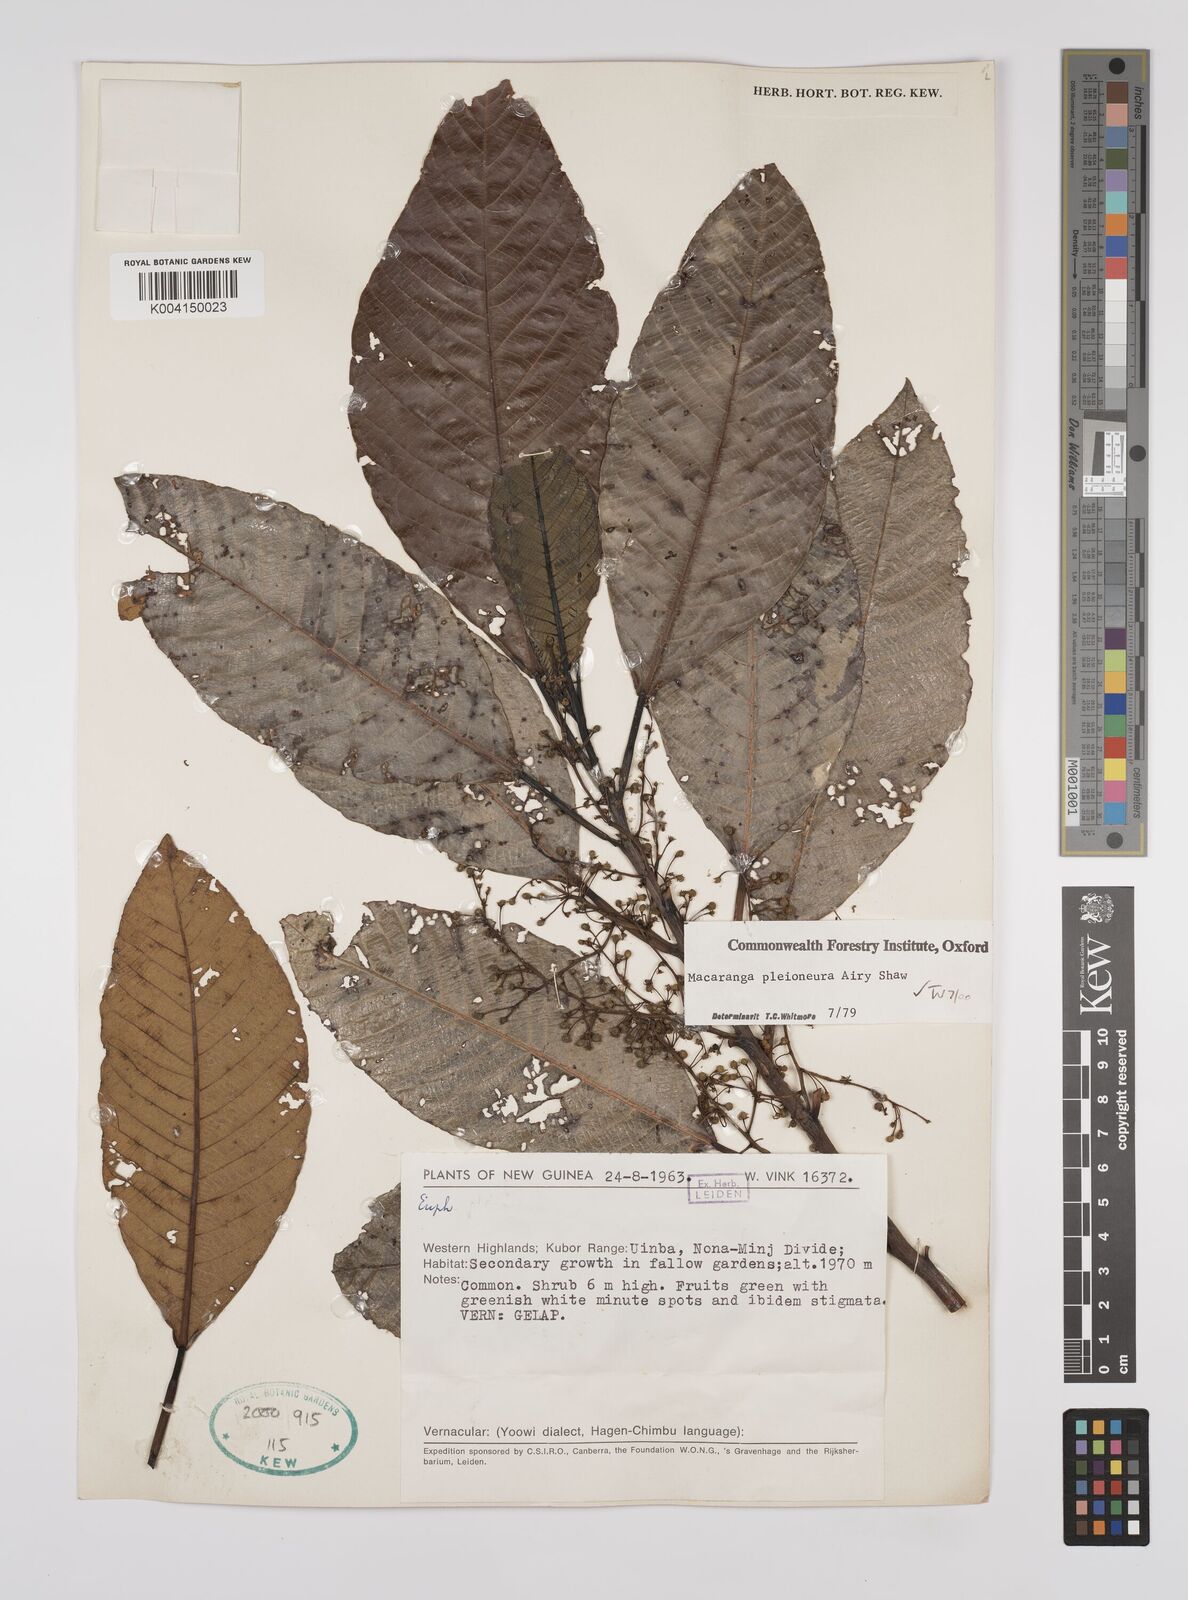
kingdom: Plantae
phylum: Tracheophyta
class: Magnoliopsida
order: Malpighiales
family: Euphorbiaceae
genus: Macaranga
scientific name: Macaranga pleioneura
